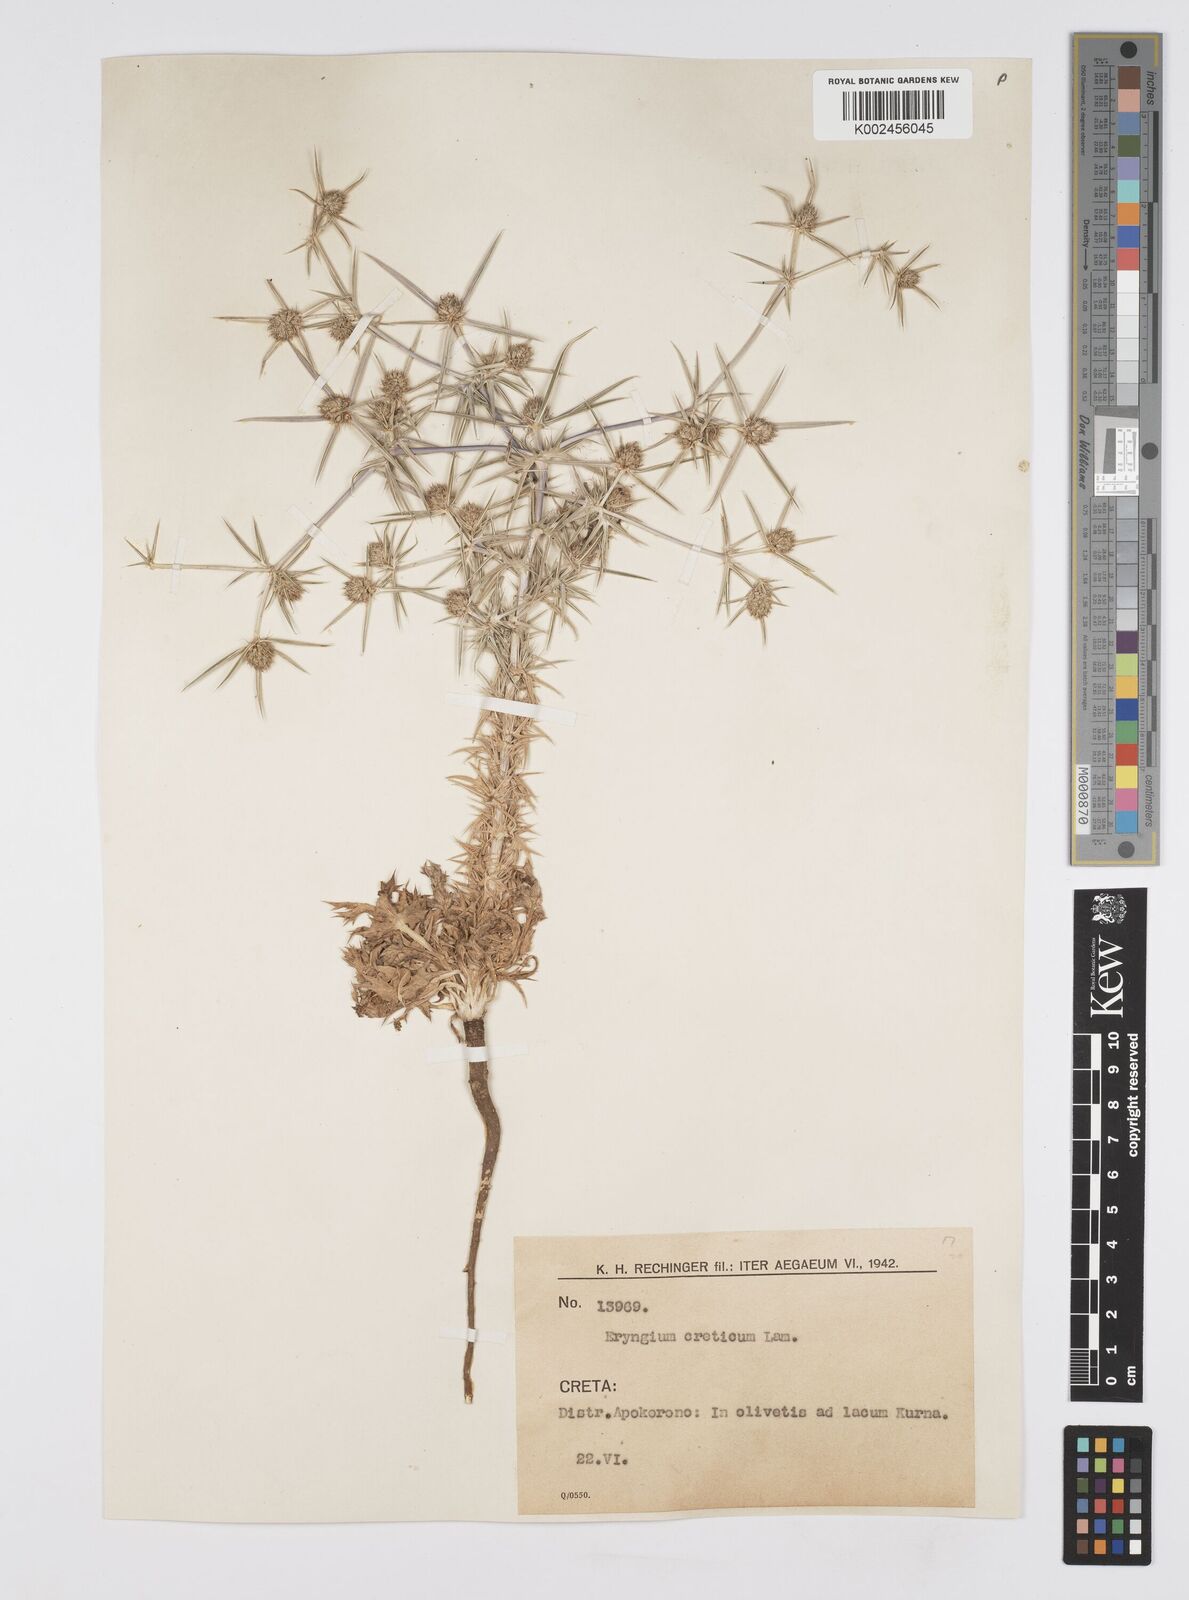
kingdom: Plantae
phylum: Tracheophyta
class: Magnoliopsida
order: Apiales
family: Apiaceae
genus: Eryngium
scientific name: Eryngium creticum
